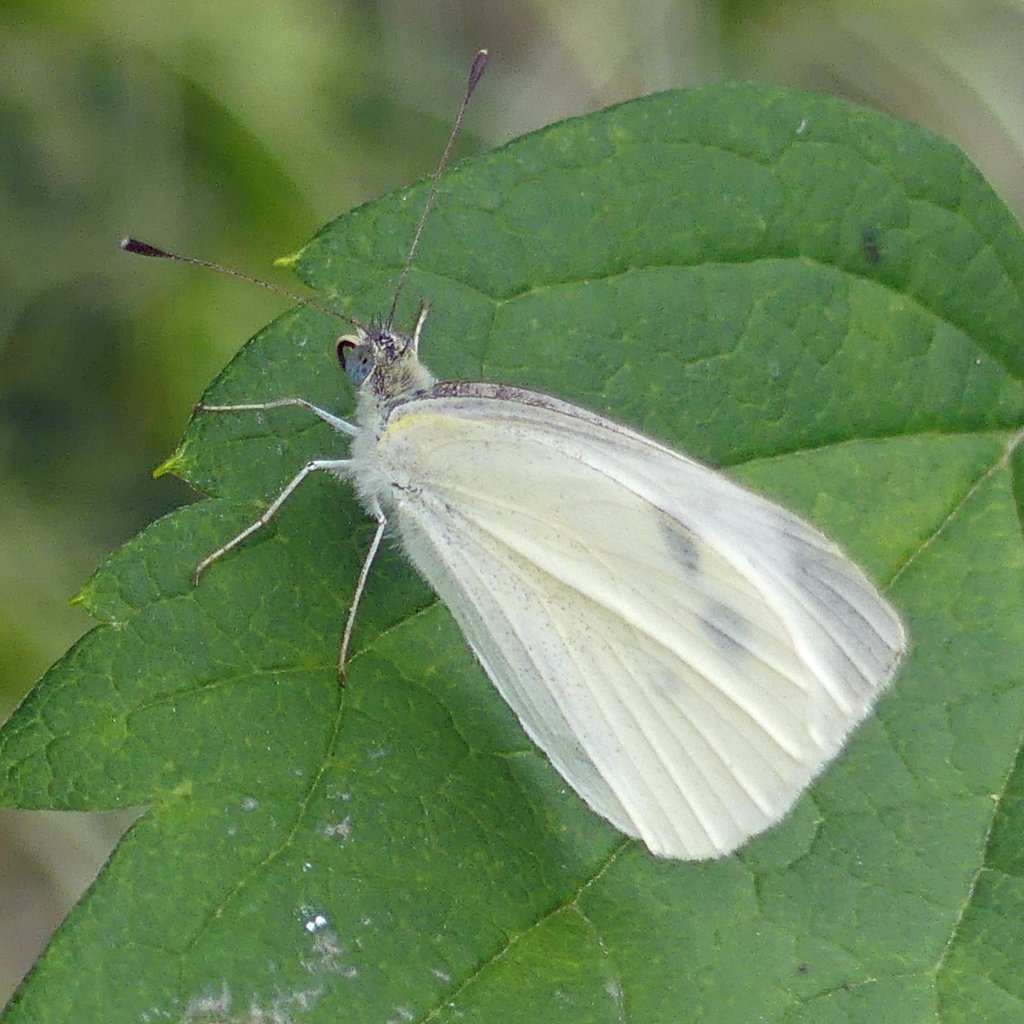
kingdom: Animalia
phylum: Arthropoda
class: Insecta
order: Lepidoptera
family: Pieridae
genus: Pieris
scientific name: Pieris rapae
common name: Cabbage White
